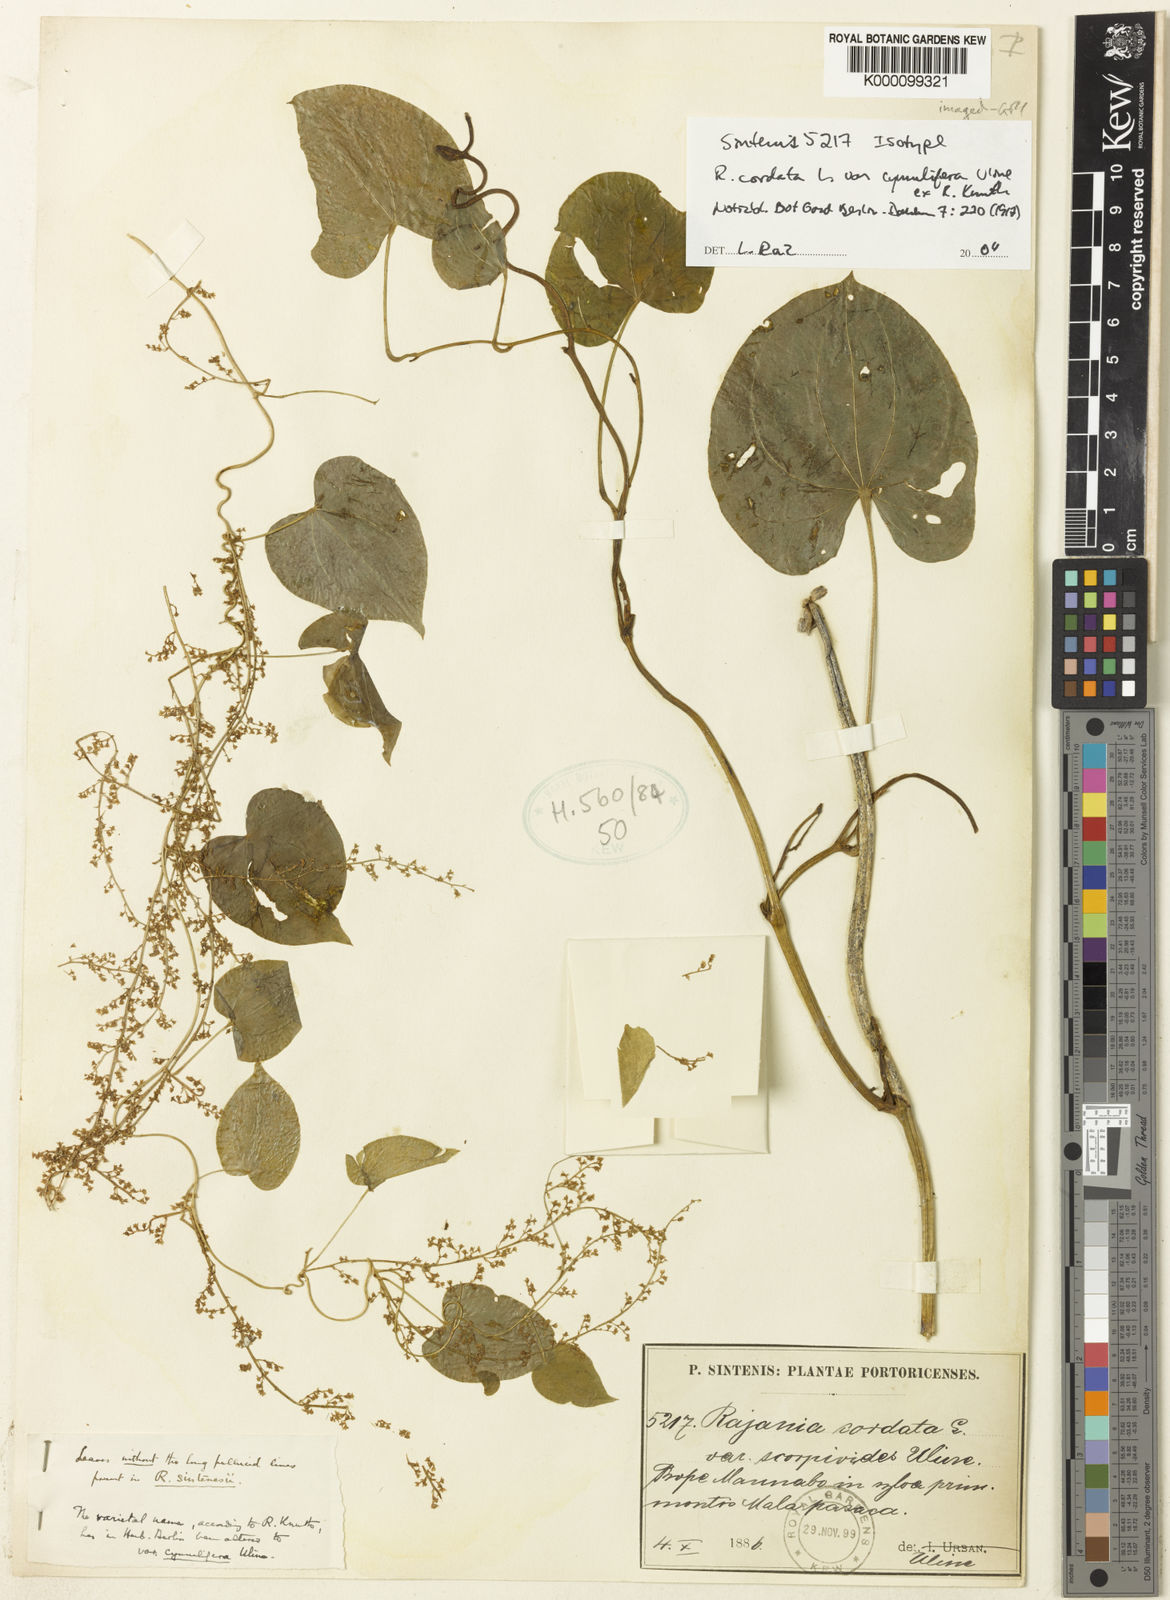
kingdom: Plantae
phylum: Tracheophyta
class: Liliopsida
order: Dioscoreales
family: Dioscoreaceae
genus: Dioscorea
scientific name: Dioscorea cordata
